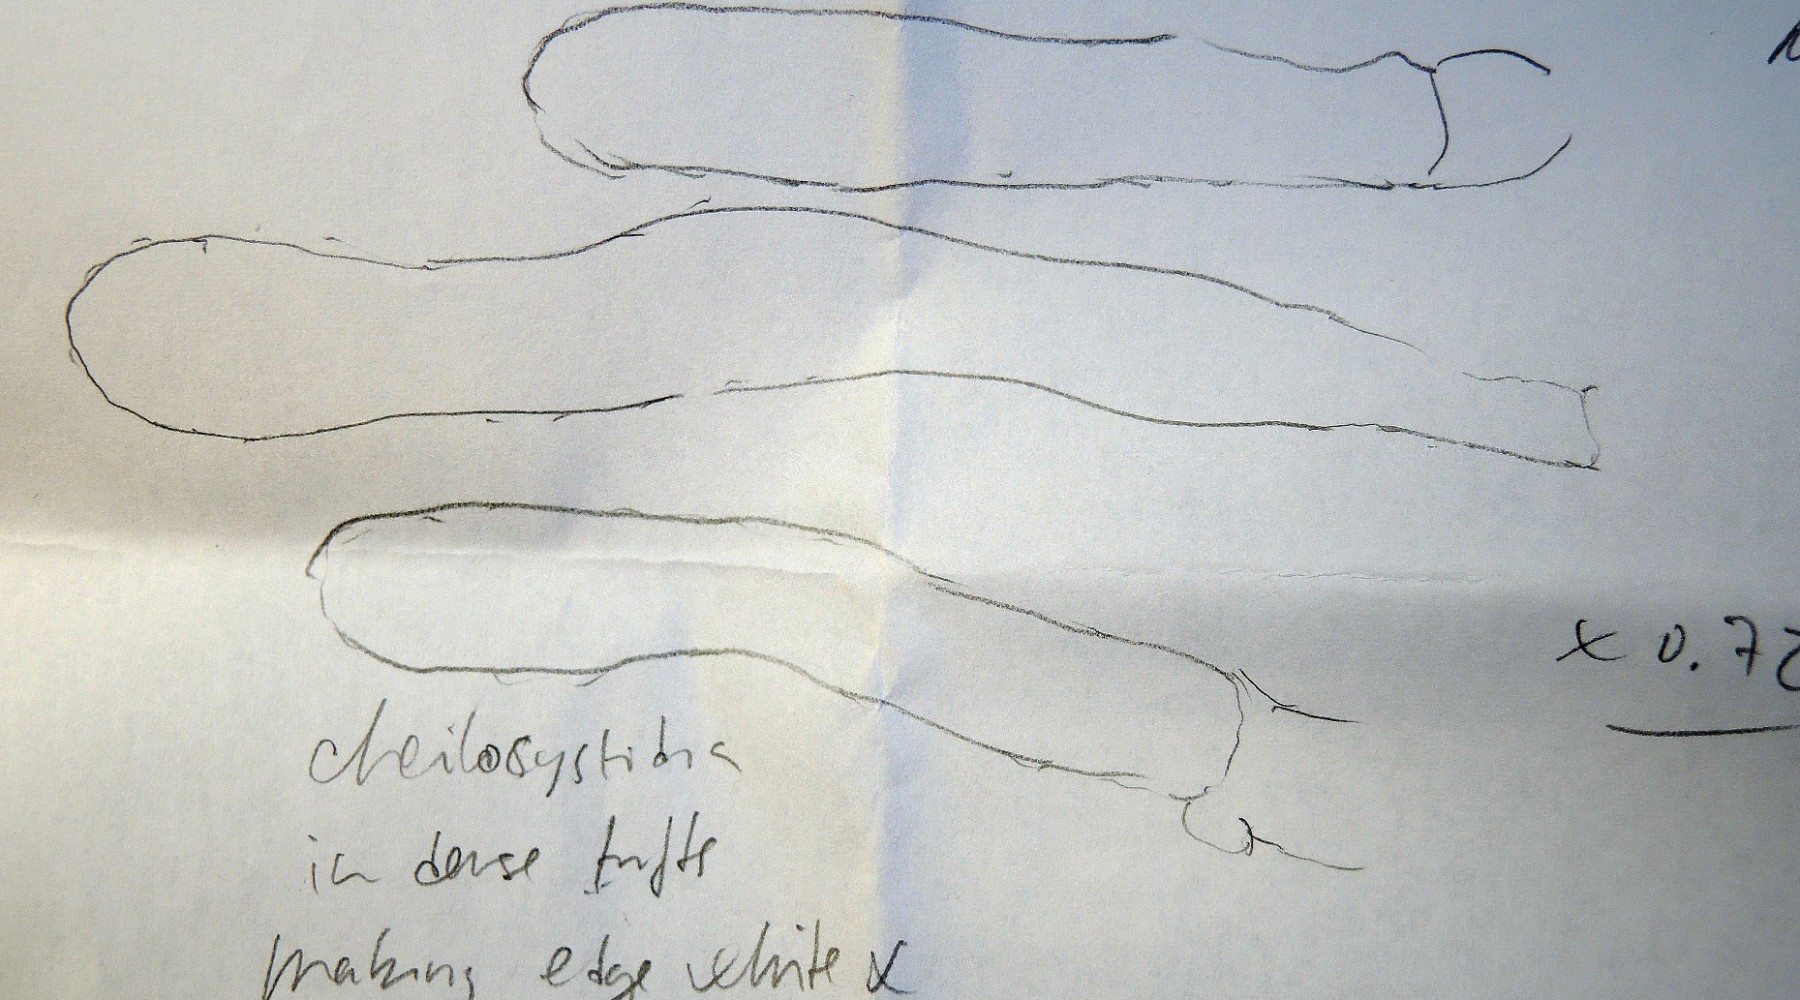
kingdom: Fungi
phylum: Basidiomycota
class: Agaricomycetes
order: Agaricales
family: Inocybaceae
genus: Inosperma
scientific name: Inosperma cervicolor
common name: hjortebrun trævlhat
